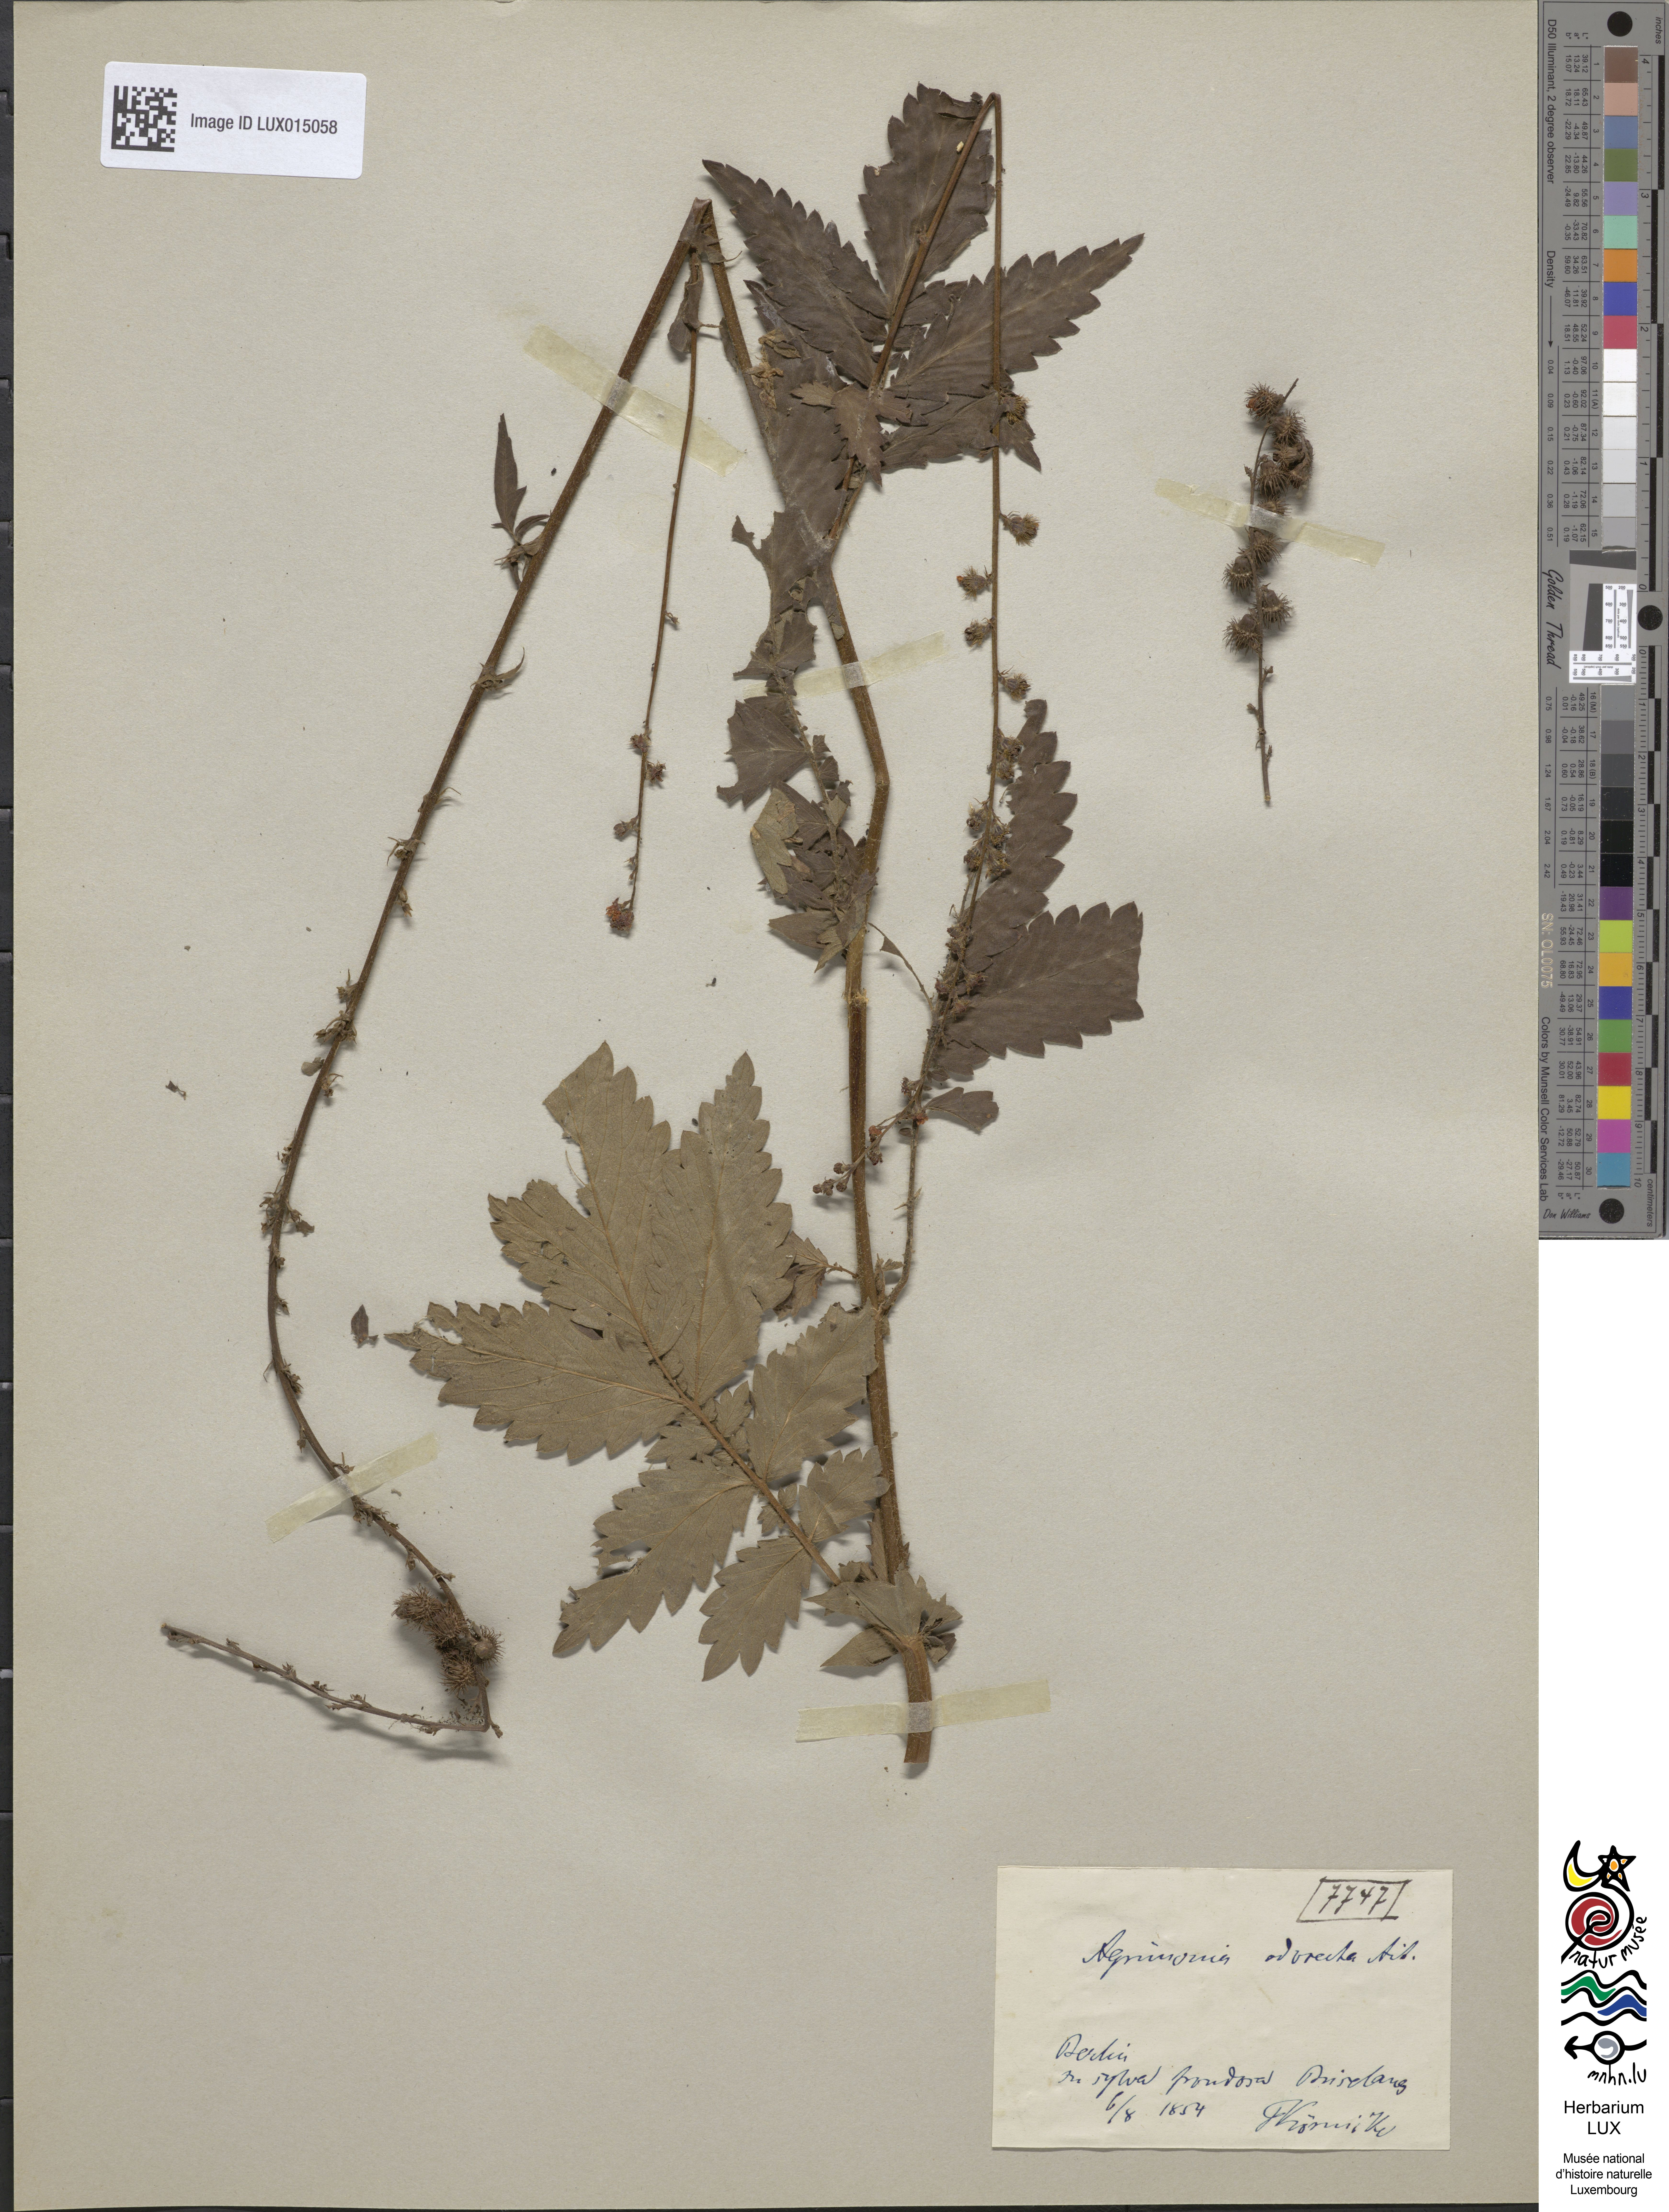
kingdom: Plantae
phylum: Tracheophyta
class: Magnoliopsida
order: Rosales
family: Rosaceae
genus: Agrimonia
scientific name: Agrimonia repens
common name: Creeping agrimony
